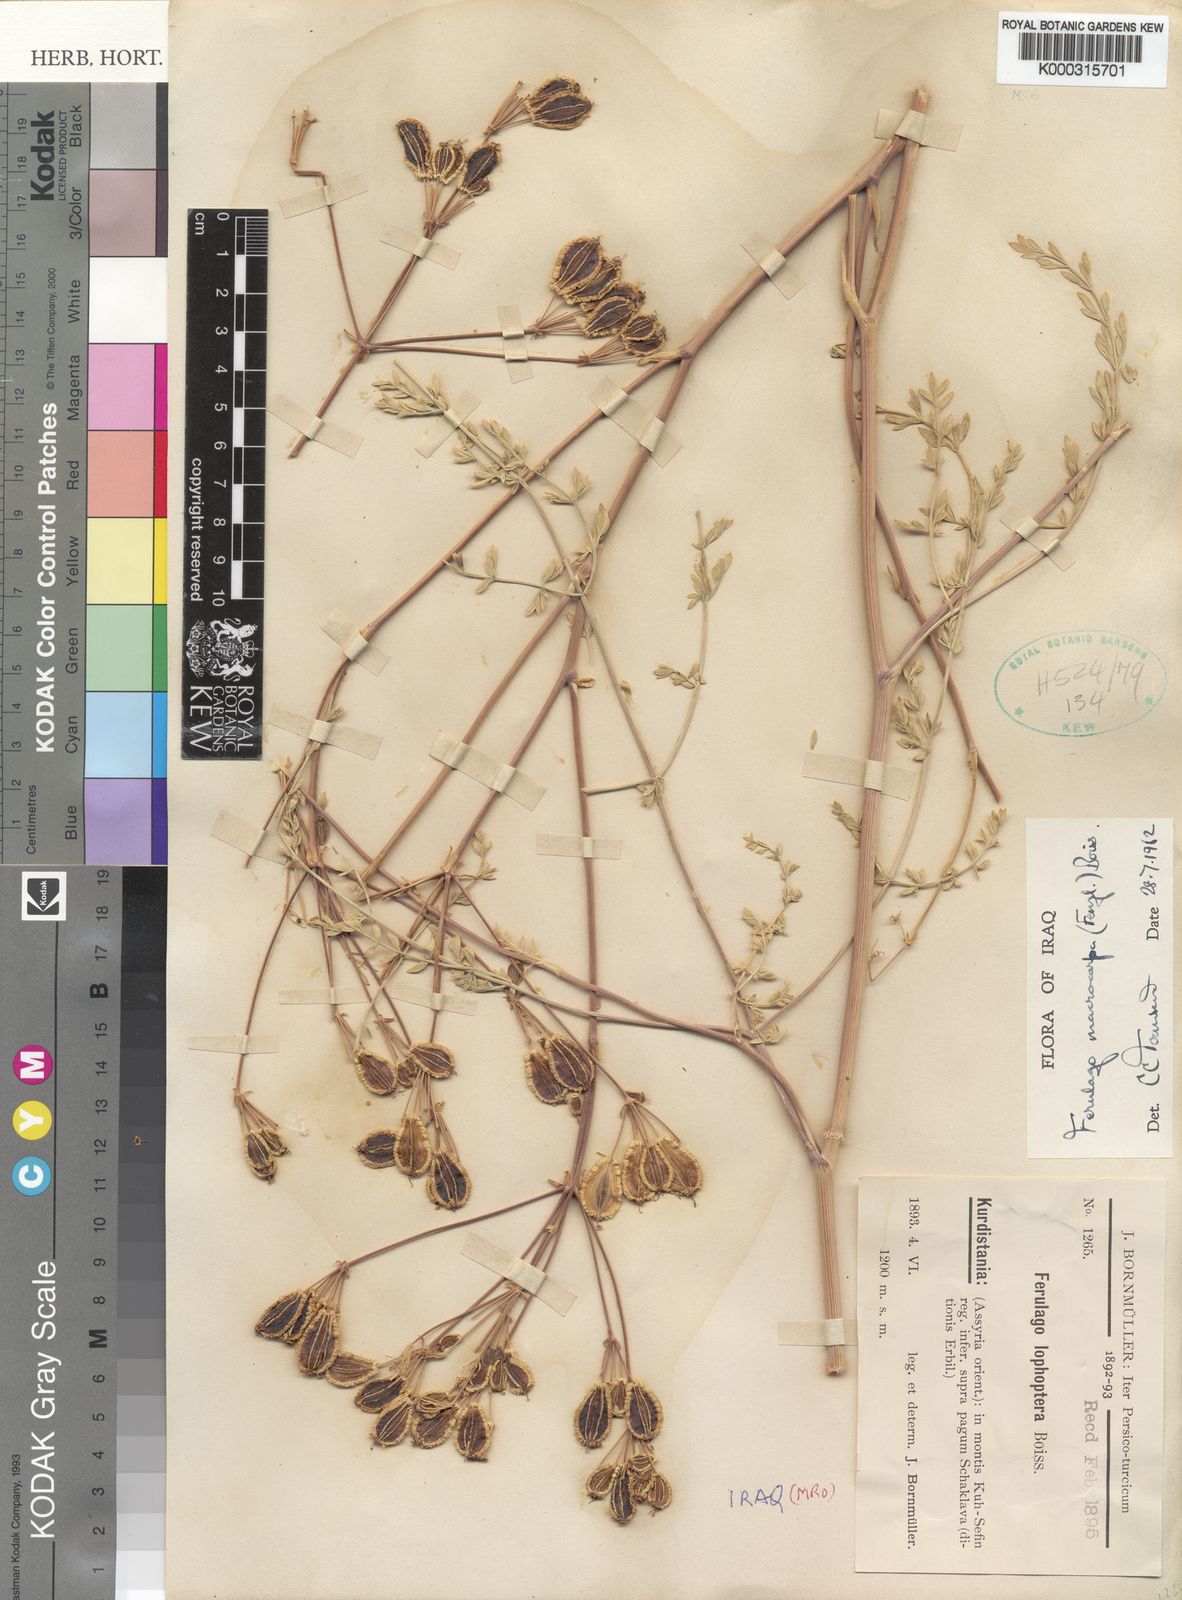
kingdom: Plantae
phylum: Tracheophyta
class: Magnoliopsida
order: Apiales
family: Apiaceae
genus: Ferulago
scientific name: Ferulago macrocarpa
